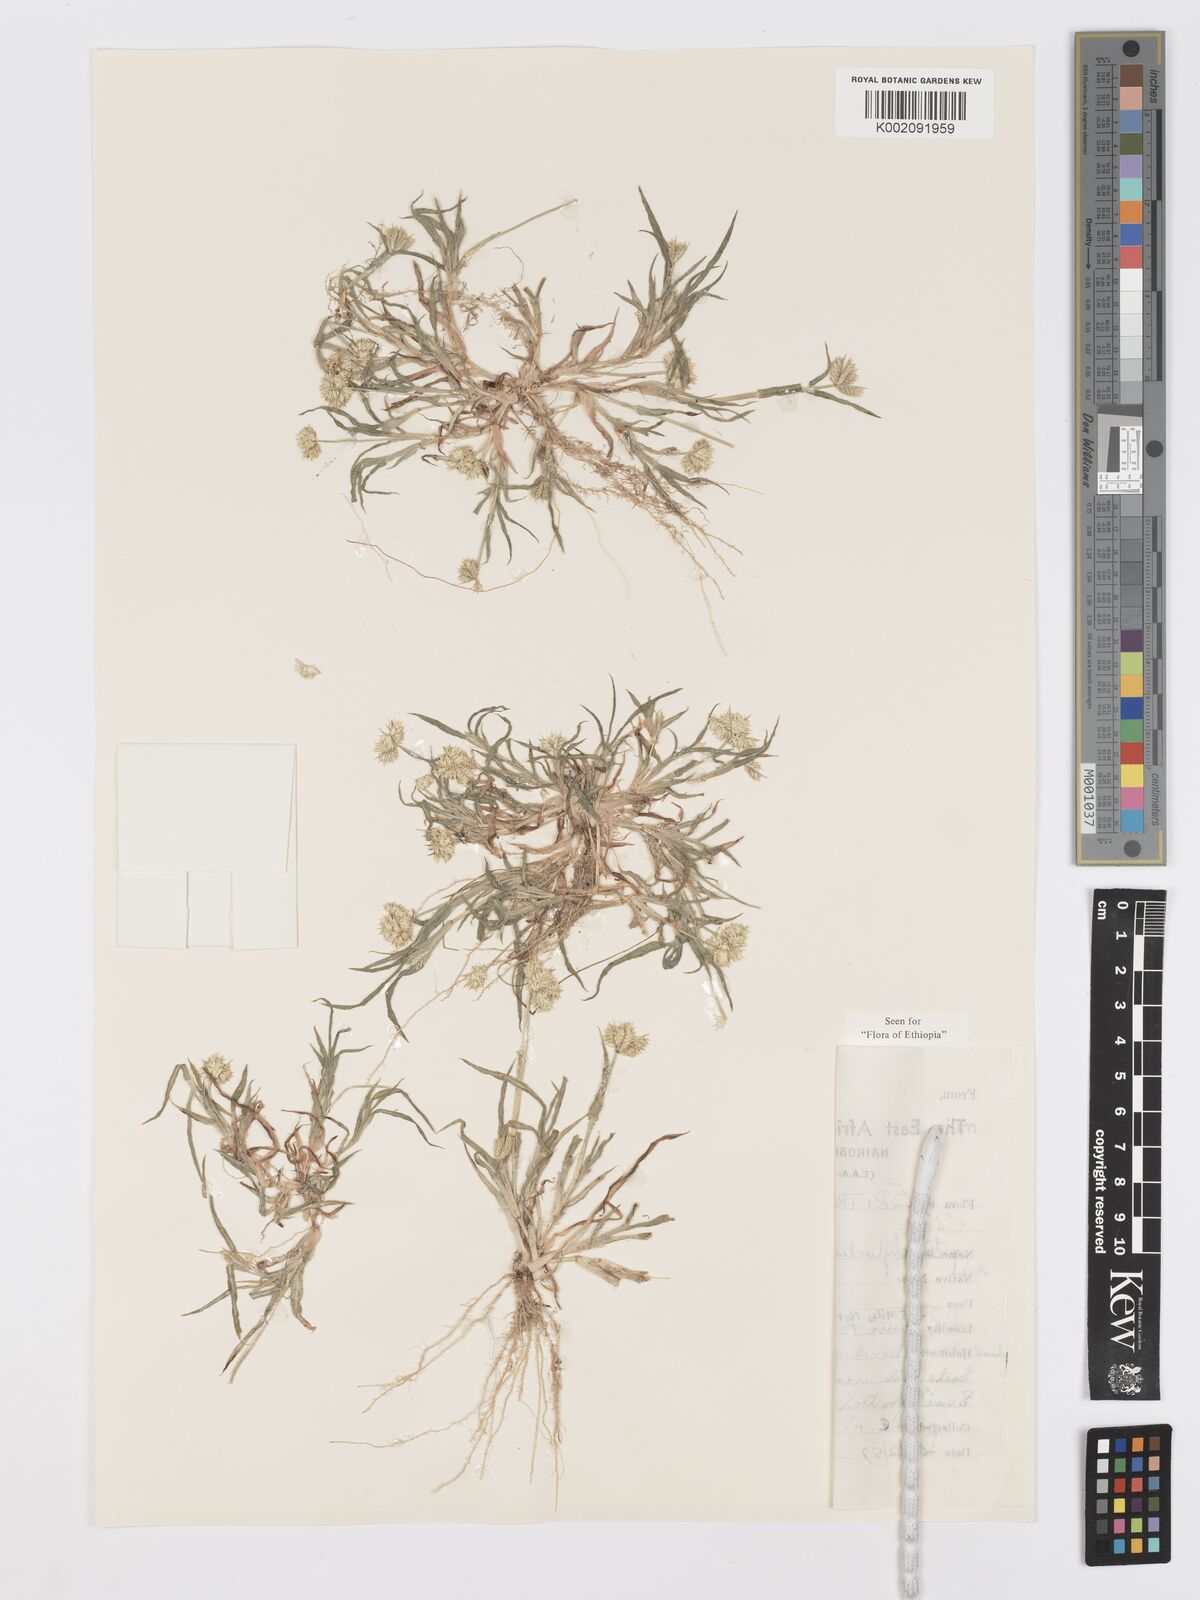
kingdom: Plantae
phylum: Tracheophyta
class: Liliopsida
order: Poales
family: Poaceae
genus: Dactyloctenium
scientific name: Dactyloctenium aristatum
